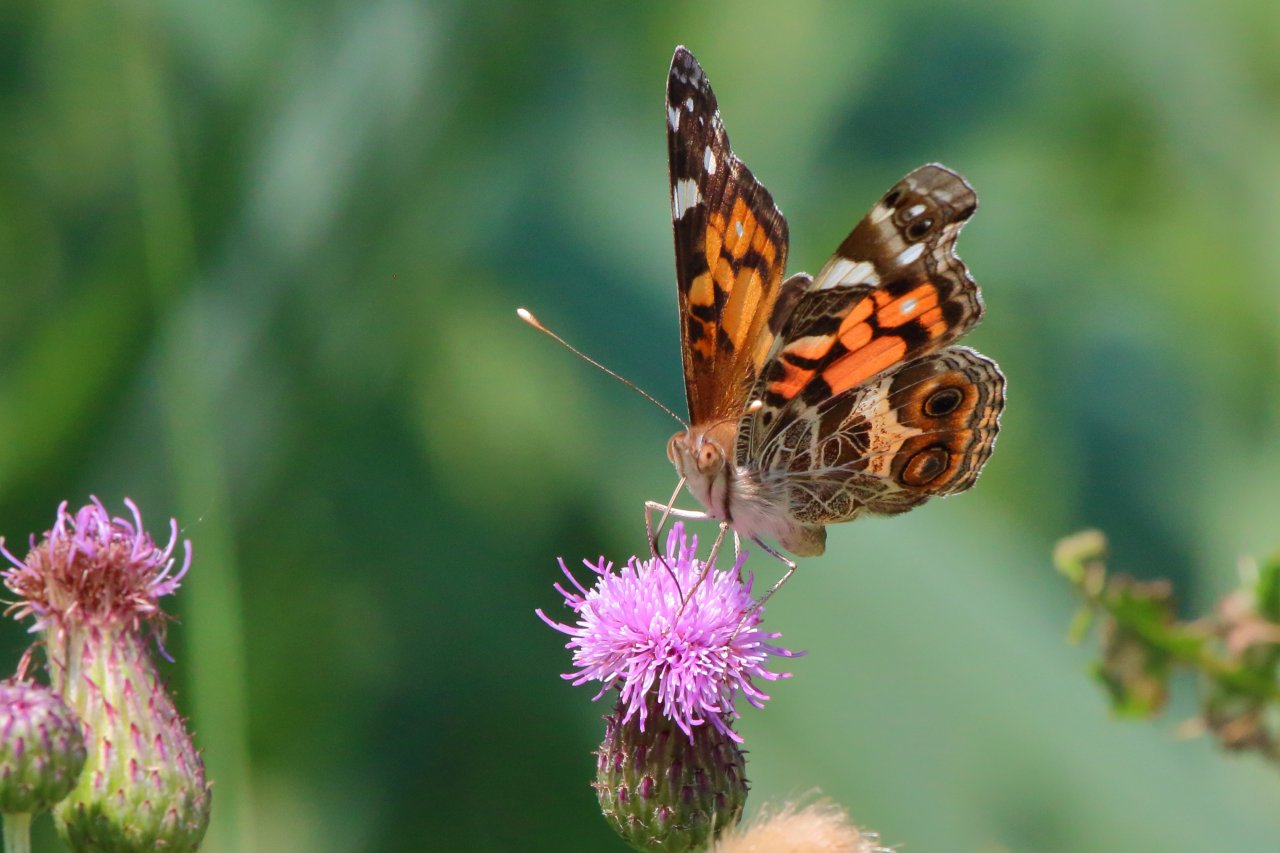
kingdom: Animalia
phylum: Arthropoda
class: Insecta
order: Lepidoptera
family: Nymphalidae
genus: Vanessa
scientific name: Vanessa virginiensis
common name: American Lady
